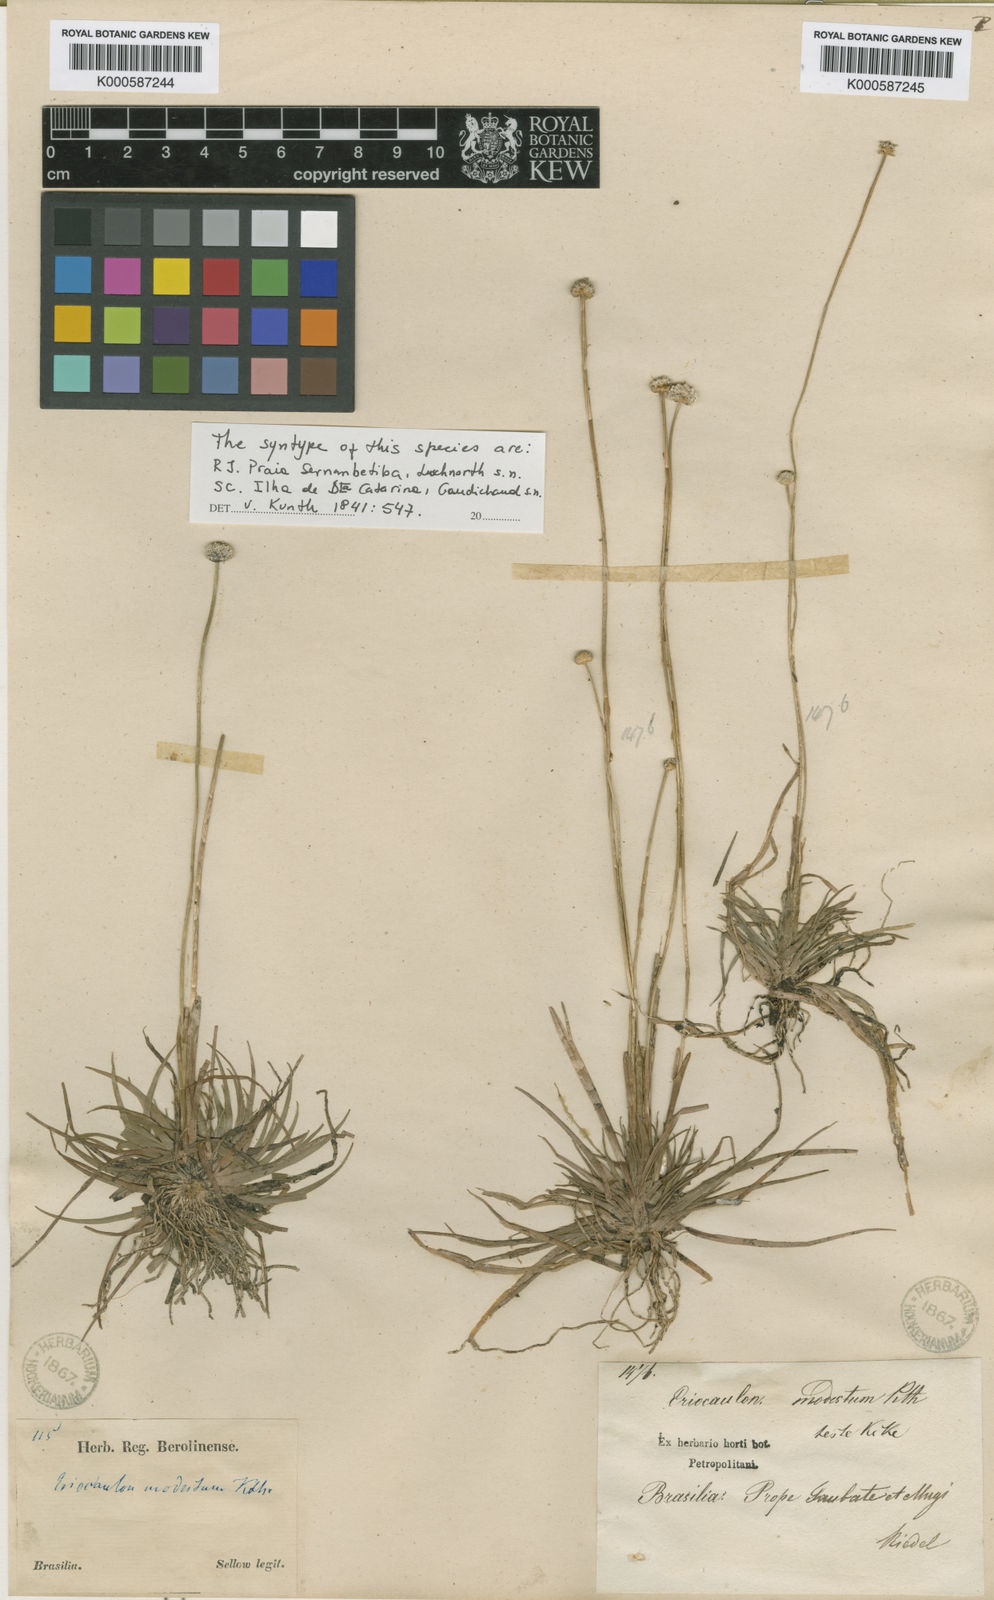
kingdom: Plantae
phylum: Tracheophyta
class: Liliopsida
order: Poales
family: Eriocaulaceae
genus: Eriocaulon
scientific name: Eriocaulon modestum
